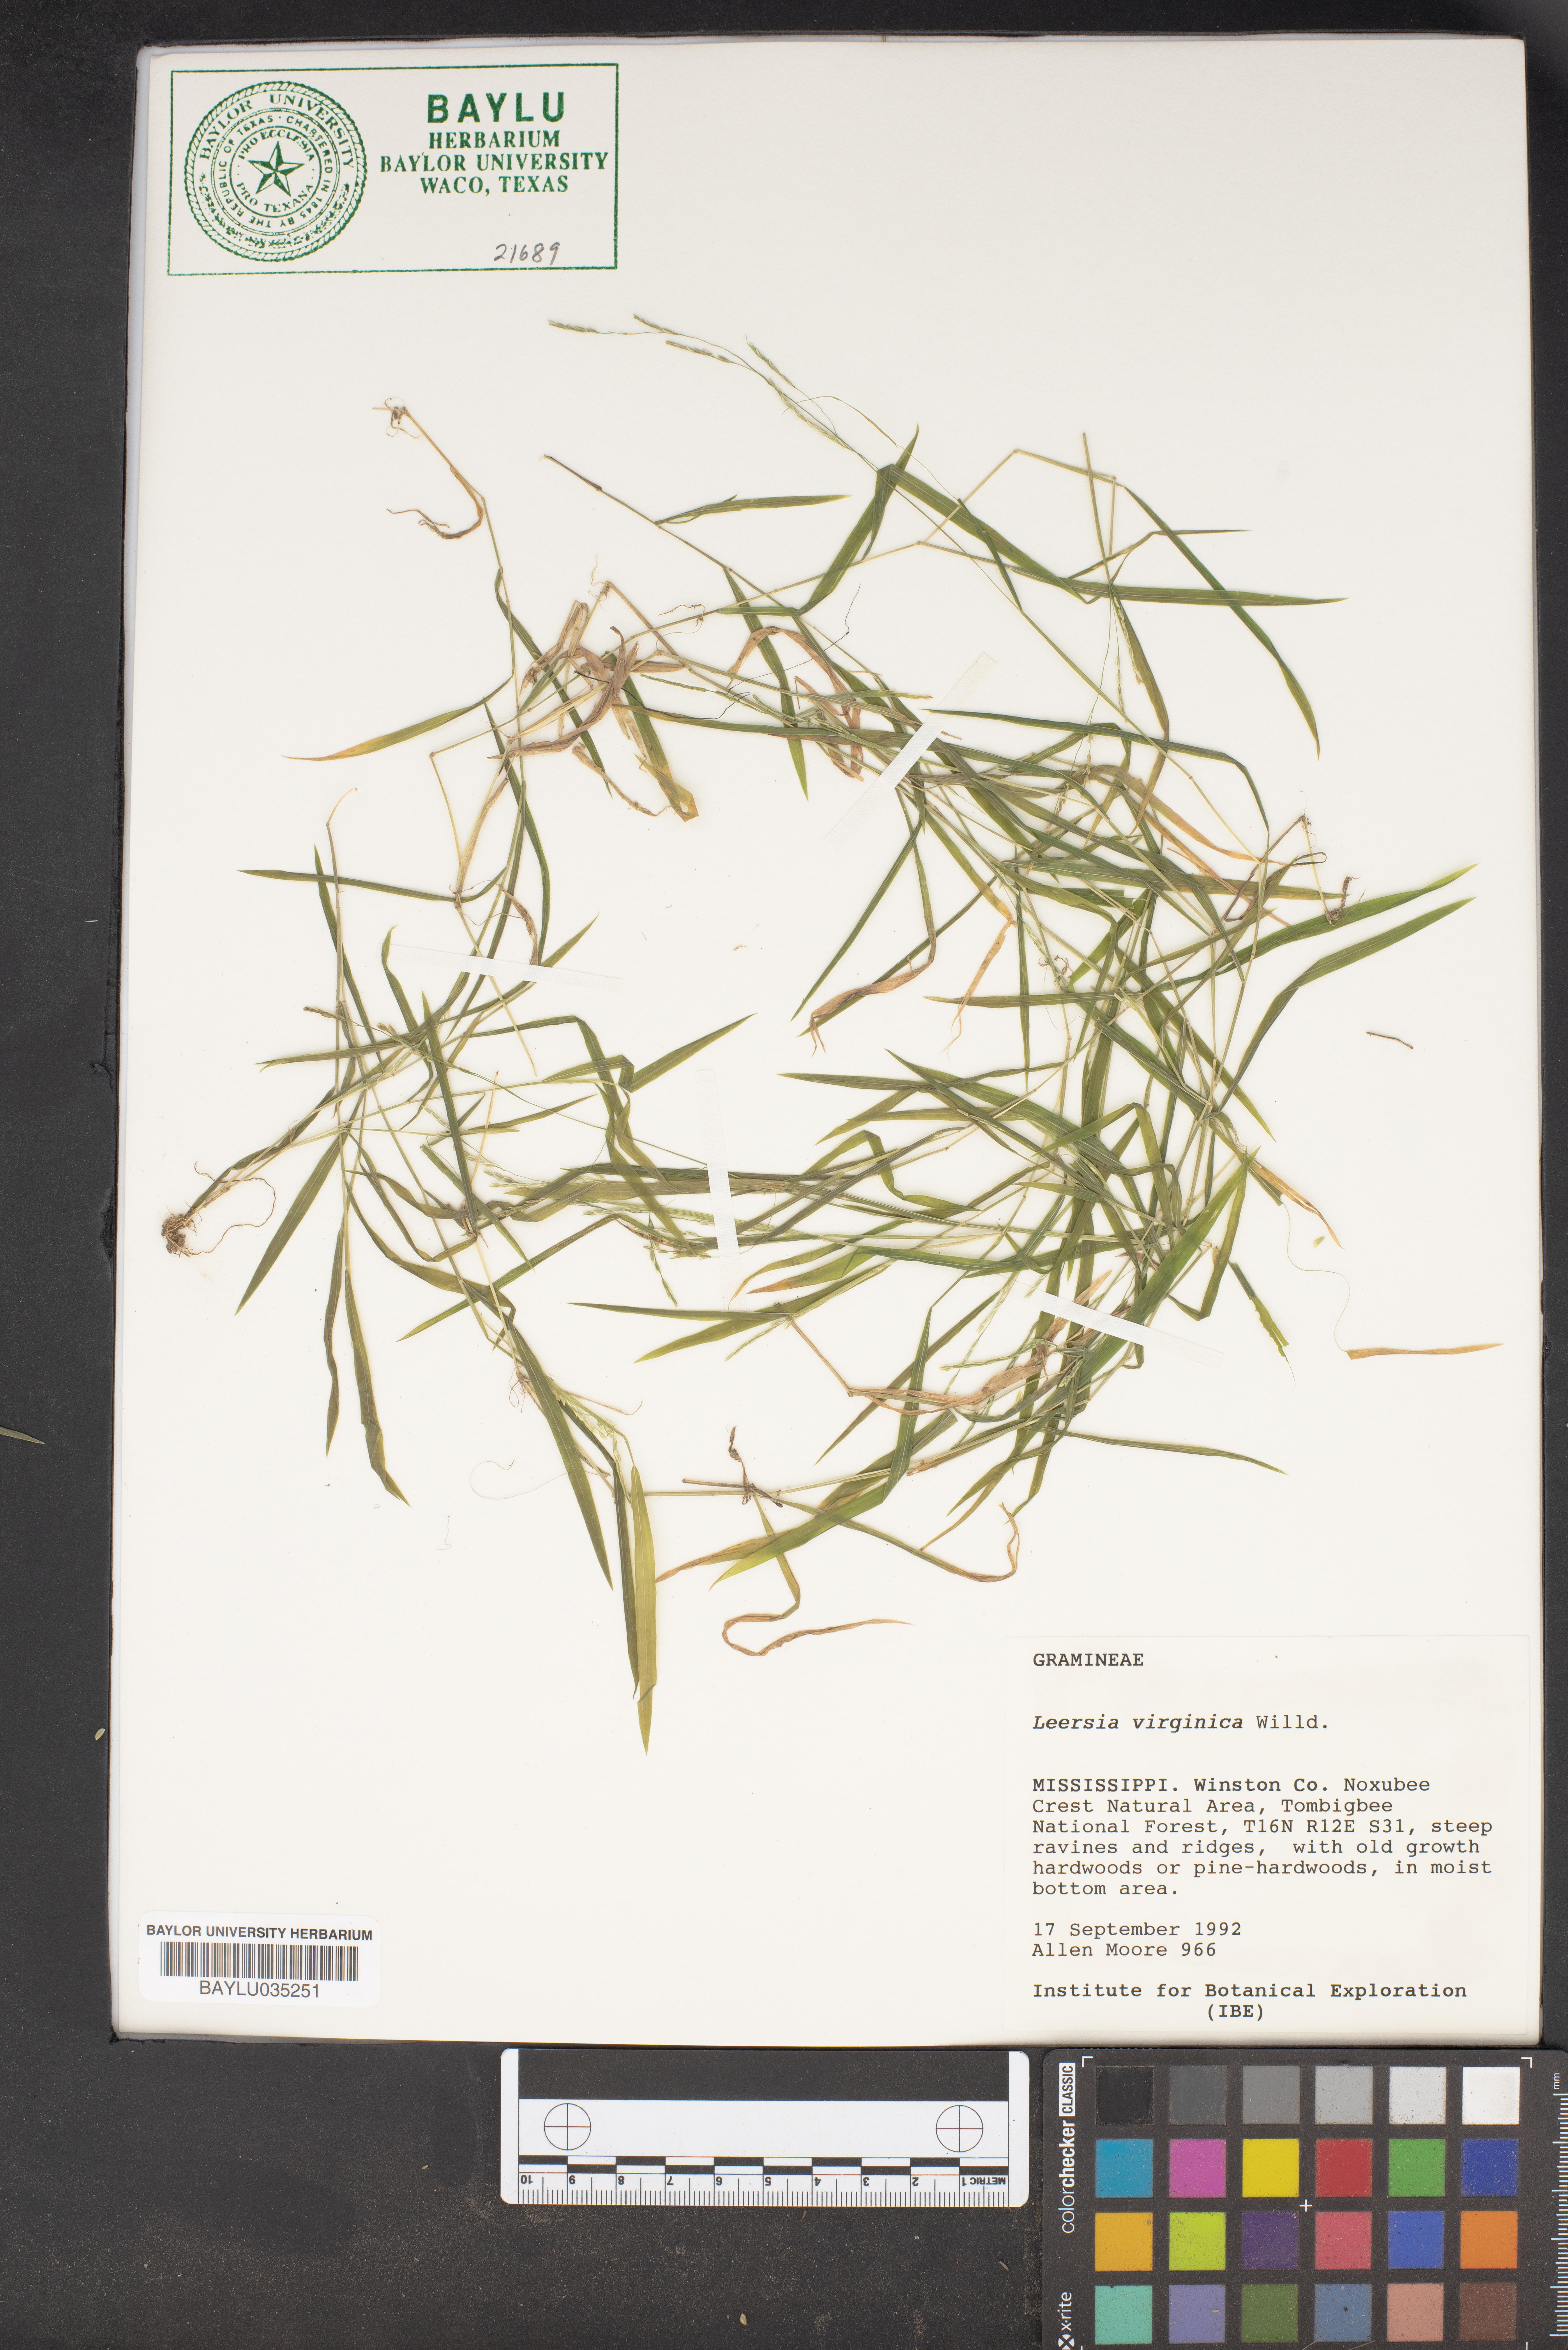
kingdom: Plantae
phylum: Tracheophyta
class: Liliopsida
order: Poales
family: Poaceae
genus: Leersia
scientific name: Leersia virginica
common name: White cutgrass
